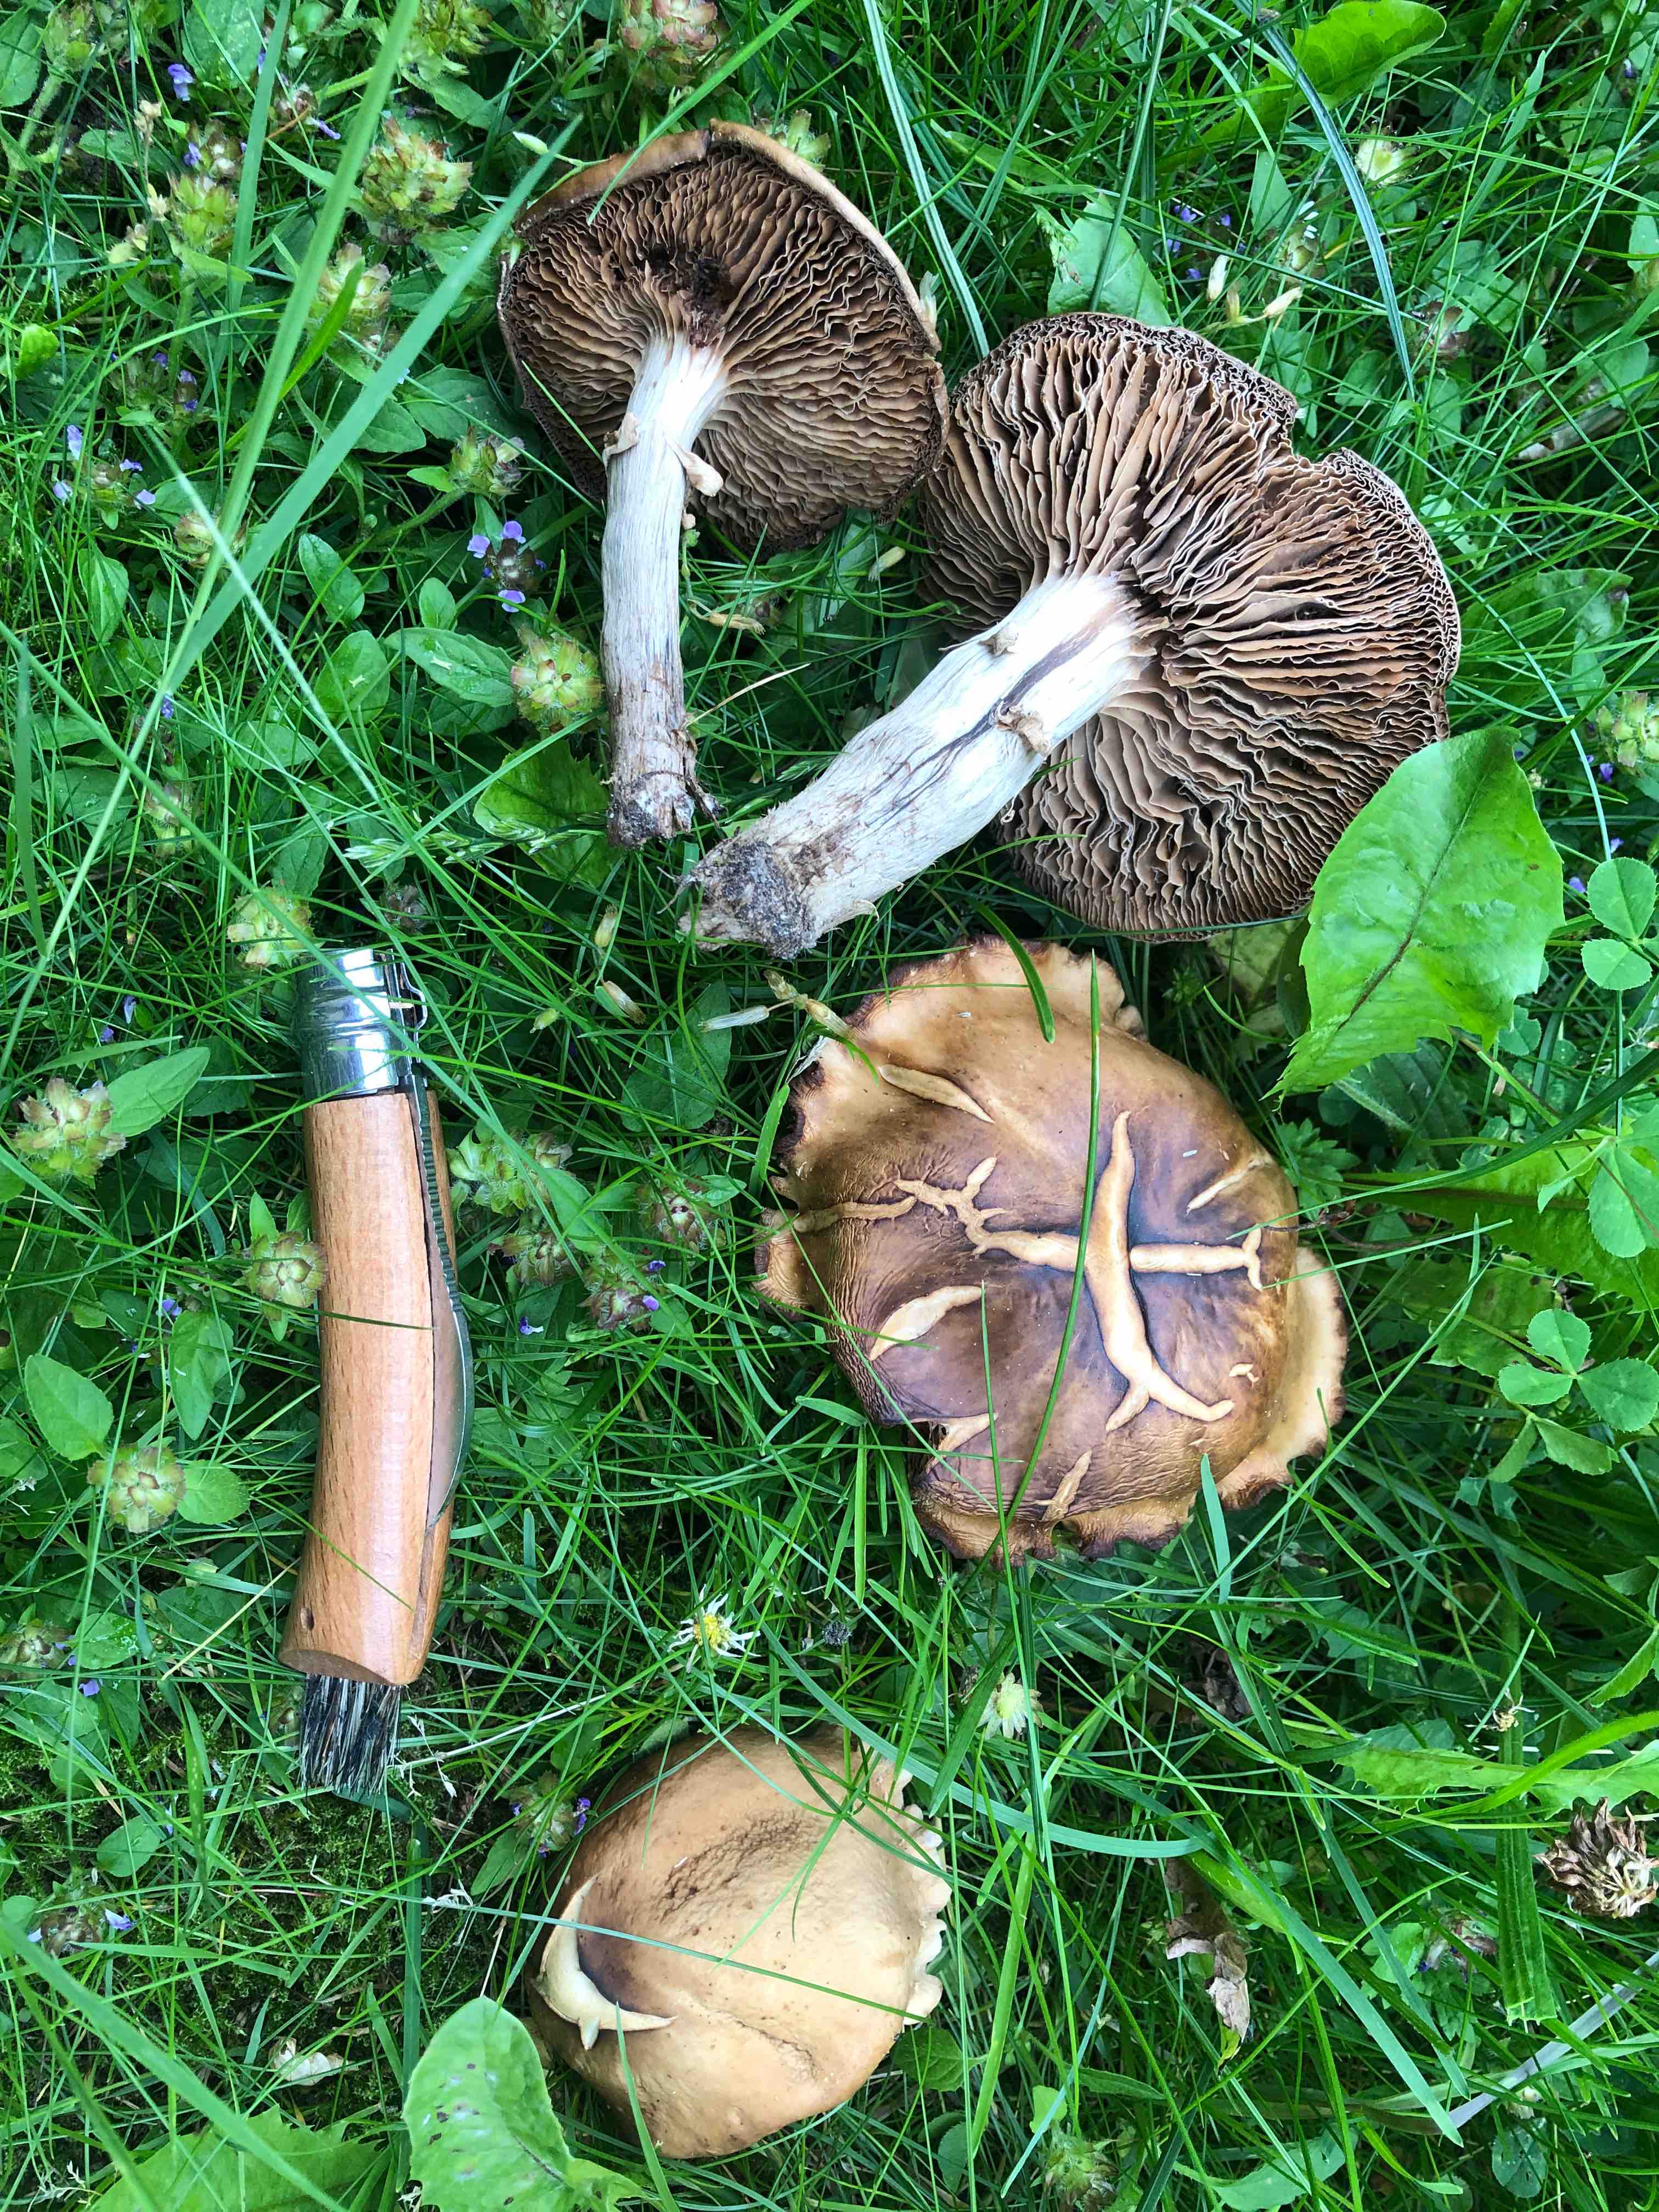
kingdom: Fungi
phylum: Basidiomycota
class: Agaricomycetes
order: Agaricales
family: Tubariaceae
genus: Cyclocybe
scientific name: Cyclocybe erebia
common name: mørk agerhat
